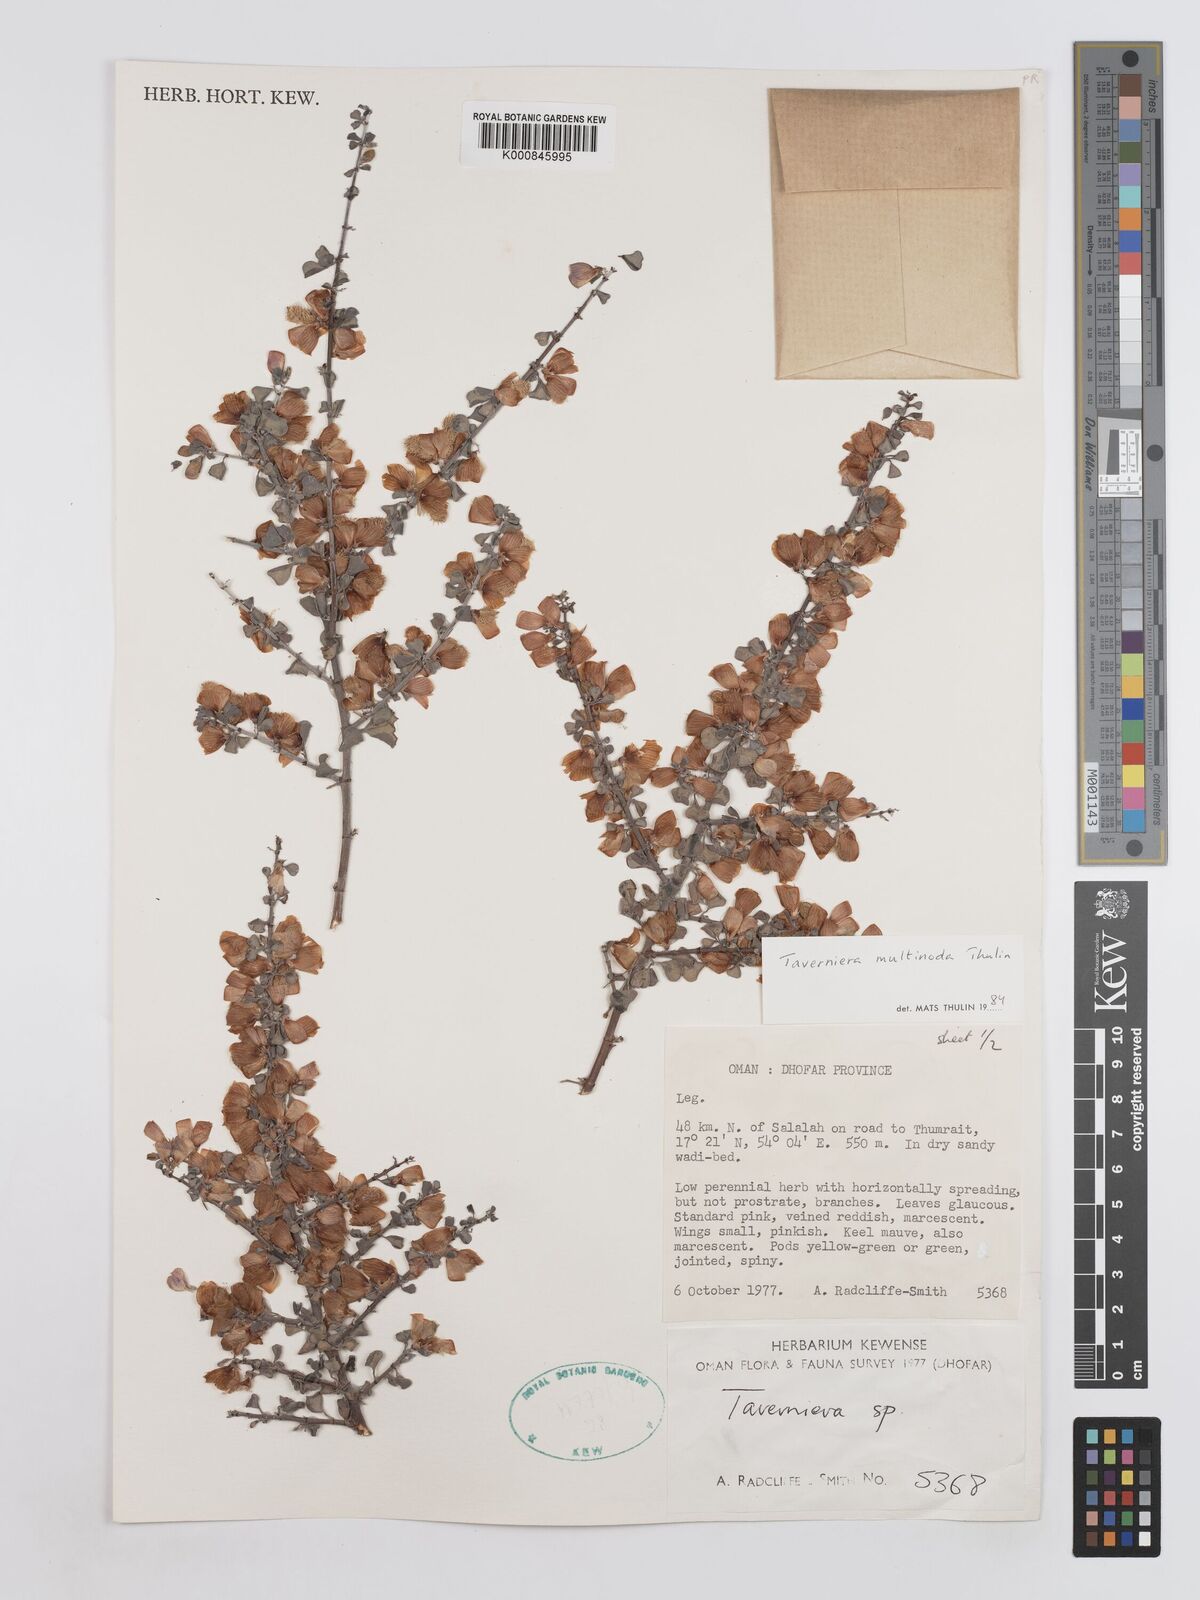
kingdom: Plantae
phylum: Tracheophyta
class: Magnoliopsida
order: Fabales
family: Fabaceae
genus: Taverniera
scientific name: Taverniera multinoda
